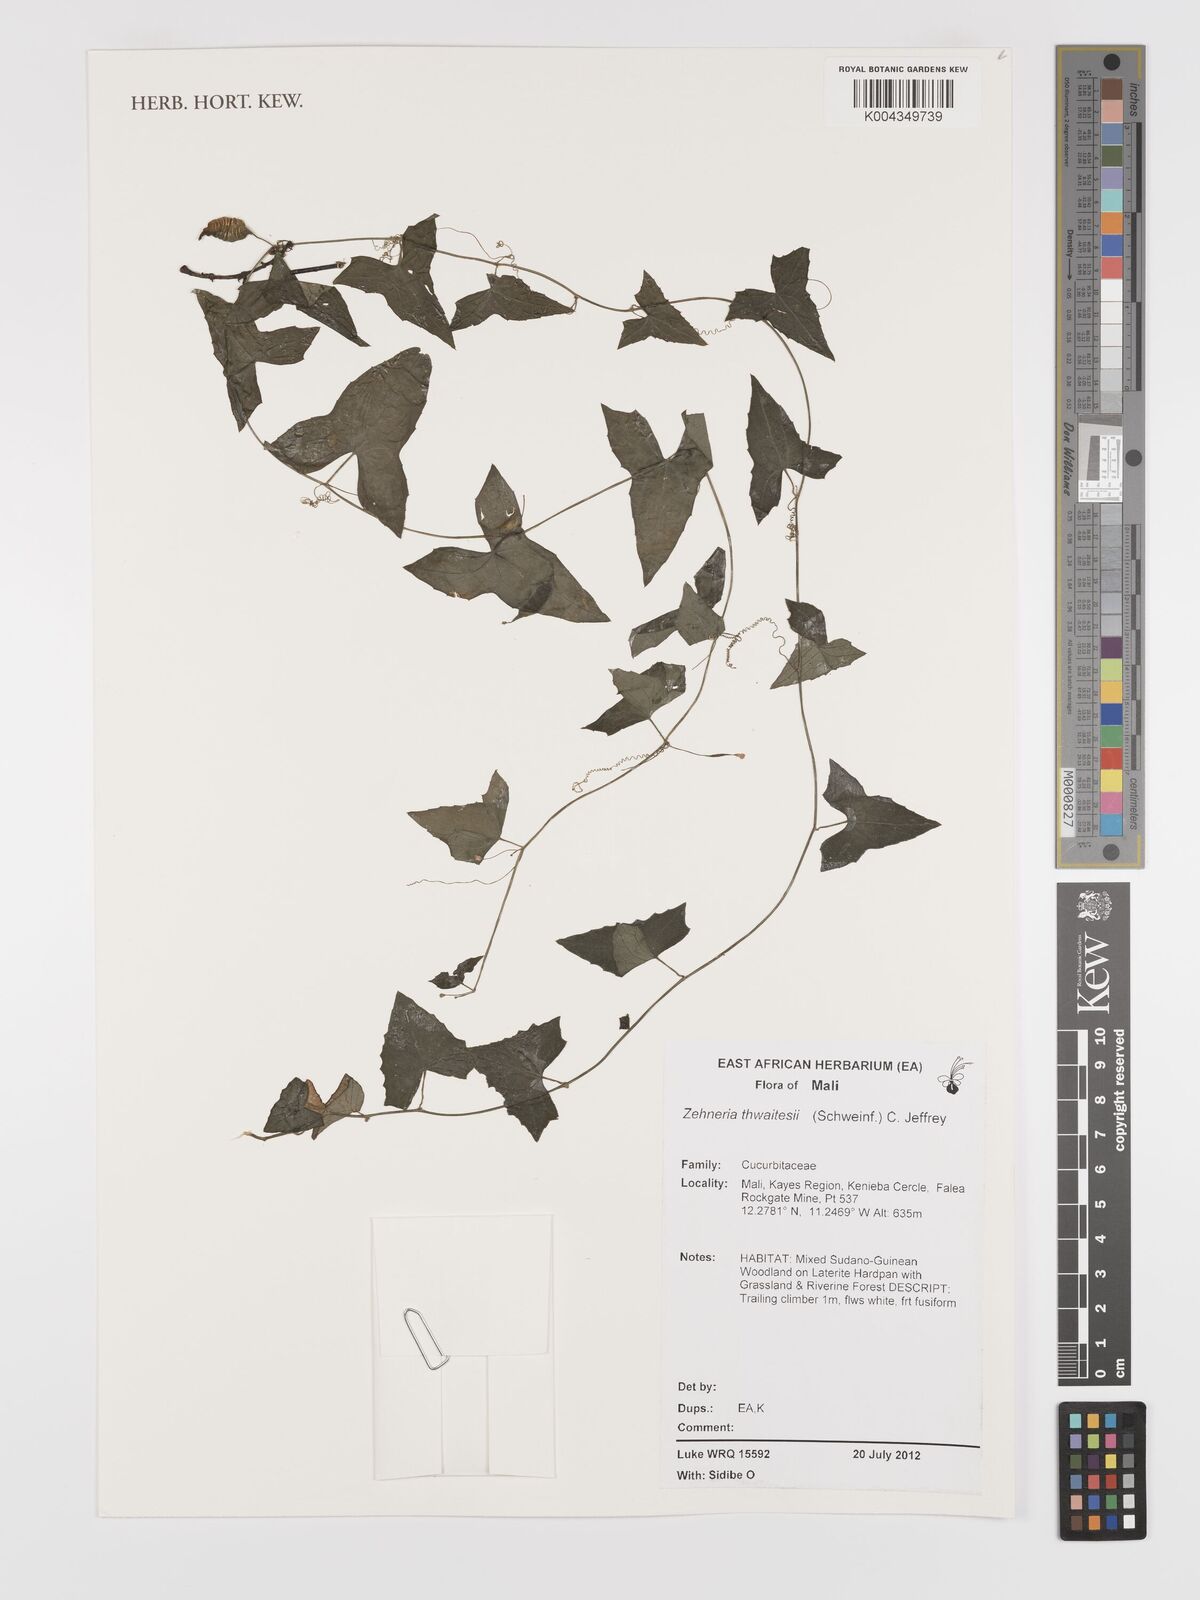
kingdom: Plantae
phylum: Tracheophyta
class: Magnoliopsida
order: Cucurbitales
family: Cucurbitaceae
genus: Zehneria
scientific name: Zehneria thwaitesii
